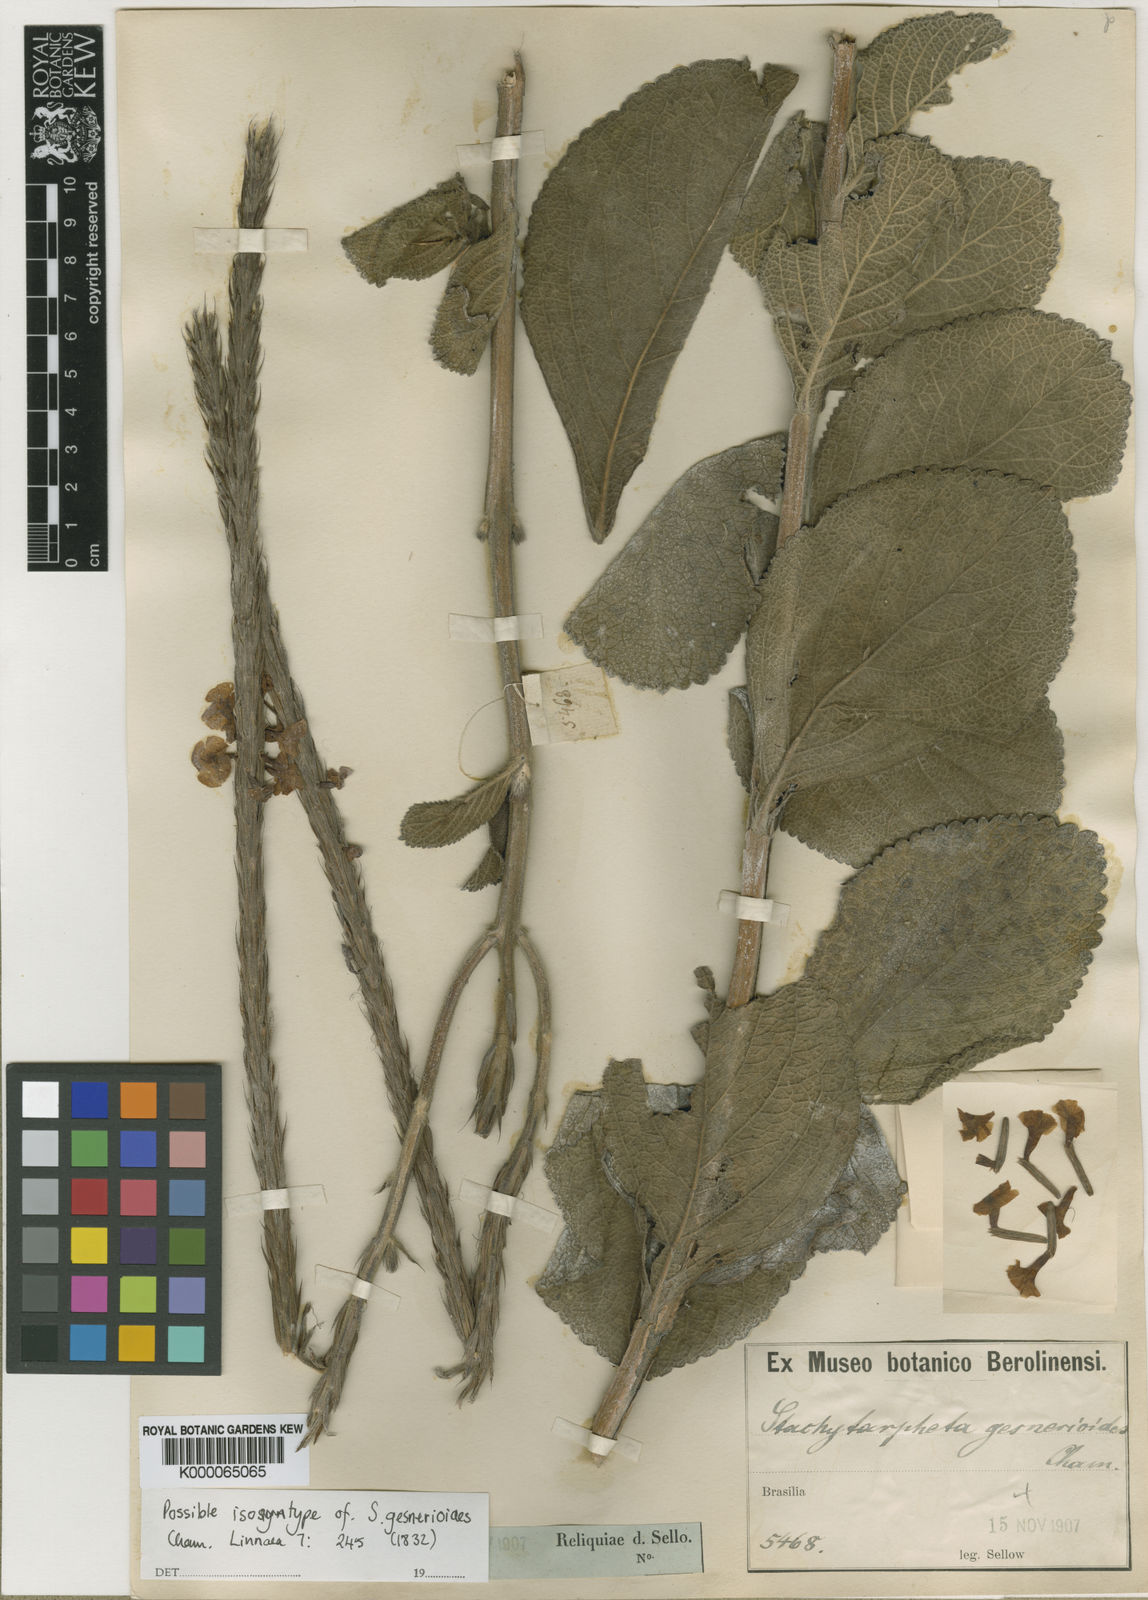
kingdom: Plantae
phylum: Tracheophyta
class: Magnoliopsida
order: Lamiales
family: Verbenaceae
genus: Stachytarpheta
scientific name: Stachytarpheta gesnerioides
